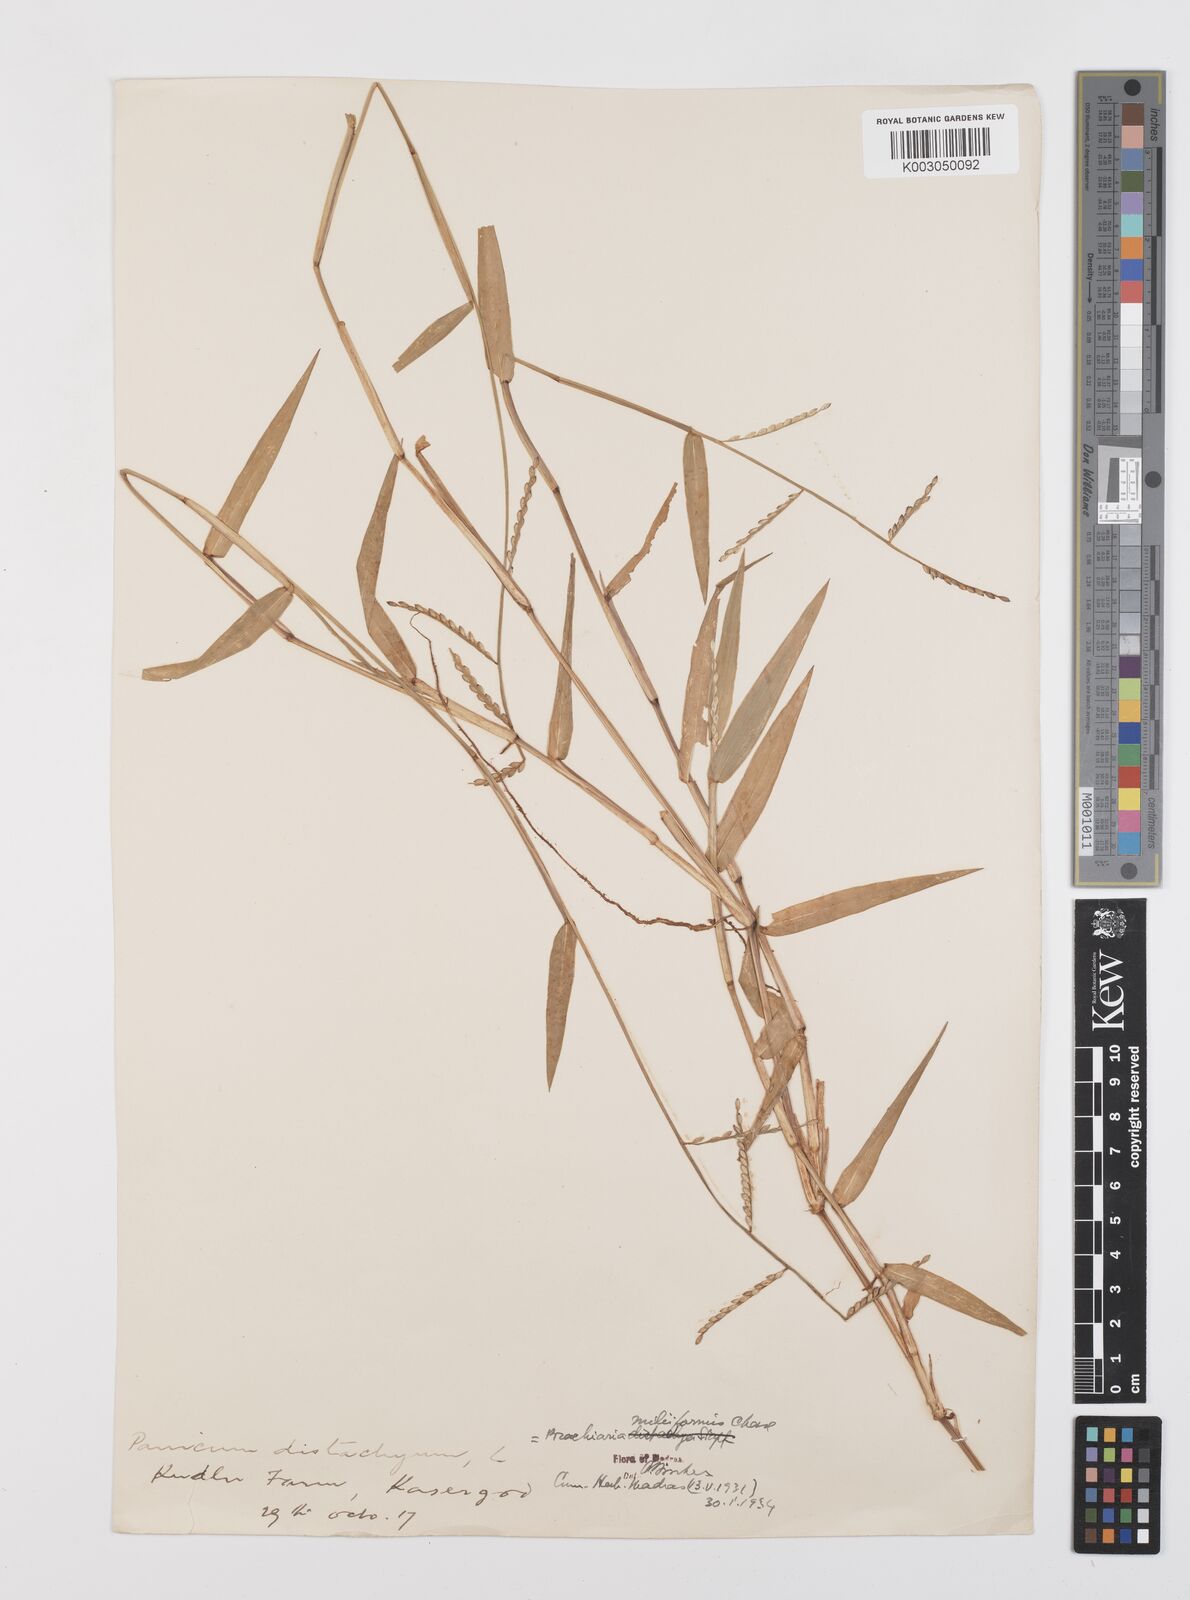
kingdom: Plantae
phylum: Tracheophyta
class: Liliopsida
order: Poales
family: Poaceae
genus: Urochloa
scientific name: Urochloa subquadripara
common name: Armgrass millet
